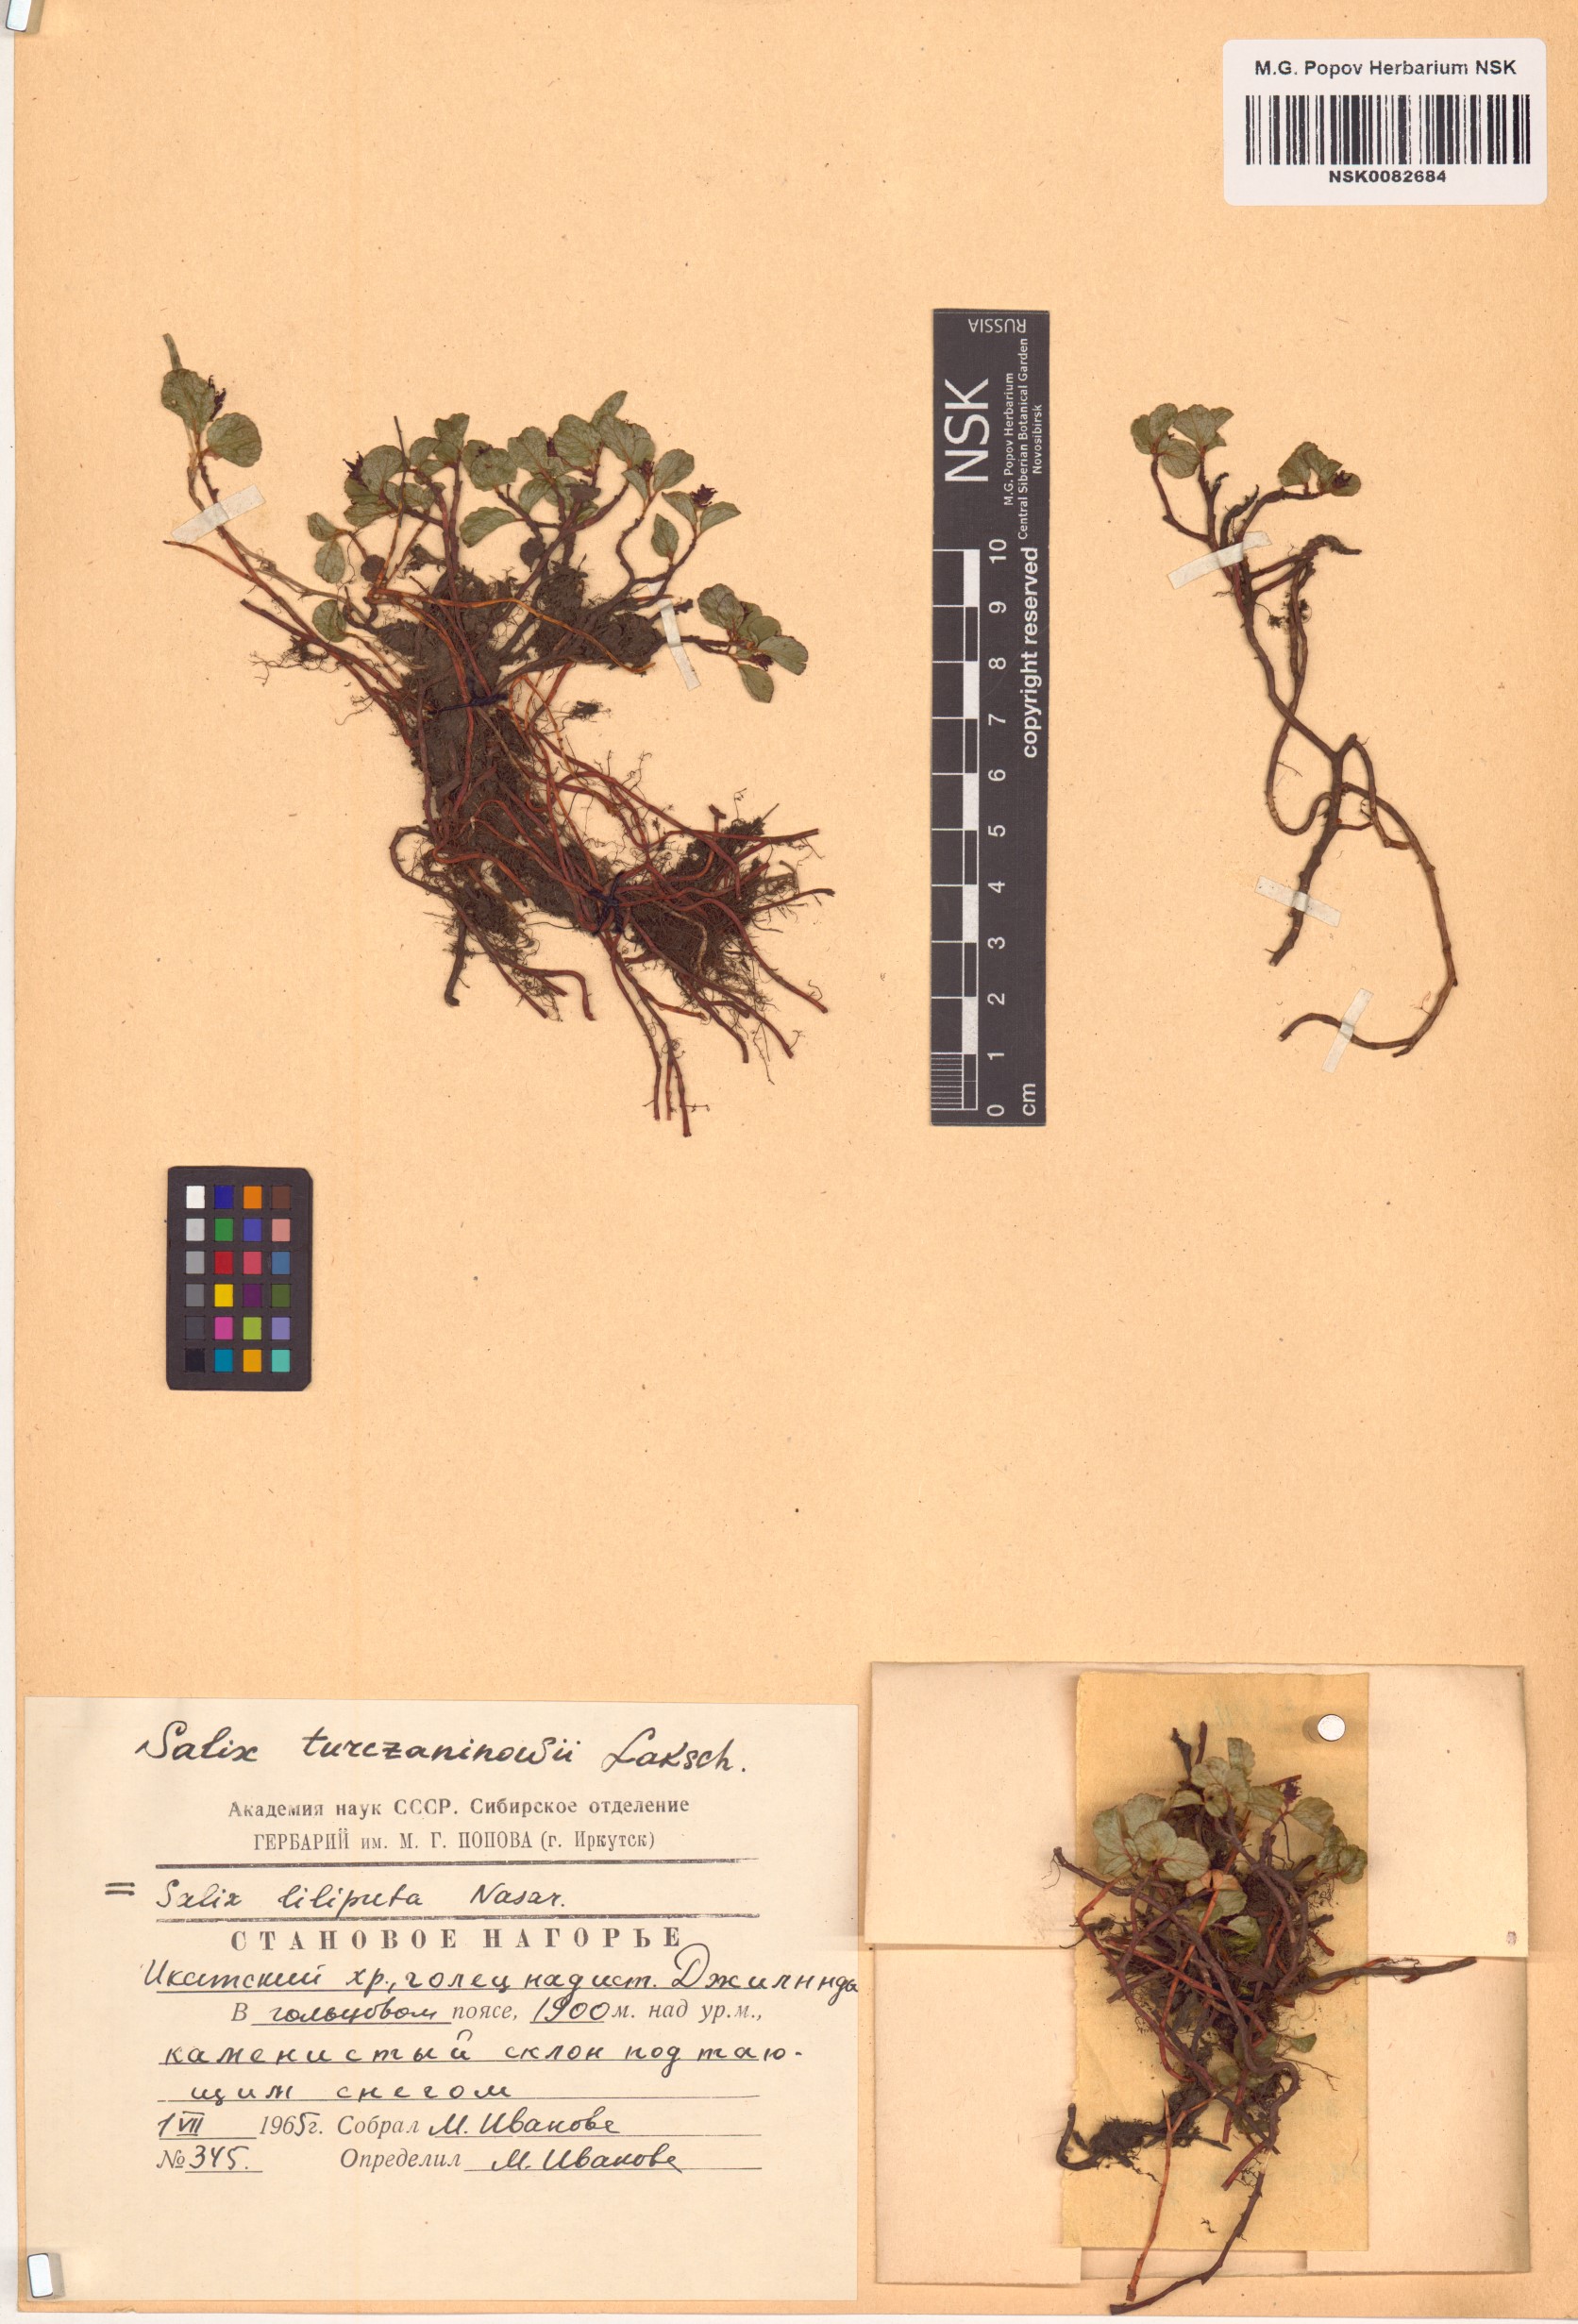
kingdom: Plantae
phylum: Tracheophyta
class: Magnoliopsida
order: Malpighiales
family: Salicaceae
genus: Salix
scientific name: Salix turczaninowii
